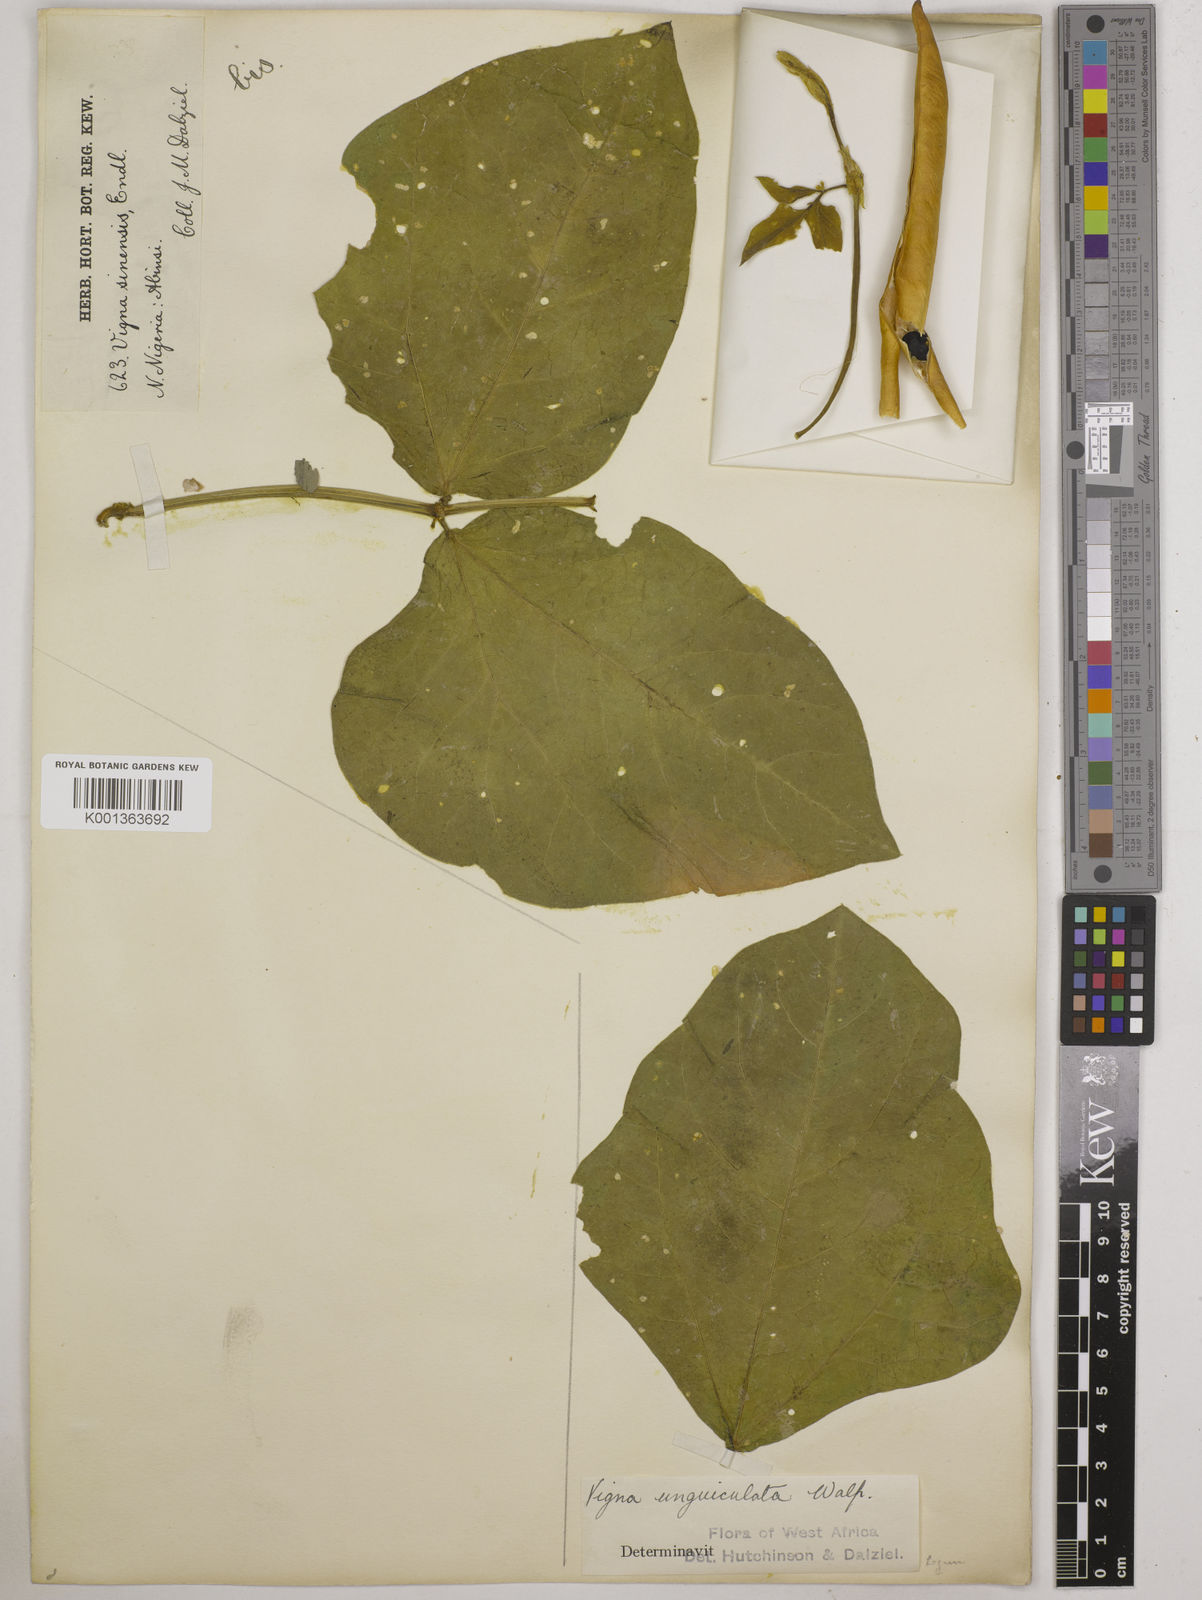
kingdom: Plantae
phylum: Tracheophyta
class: Magnoliopsida
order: Fabales
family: Fabaceae
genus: Vigna
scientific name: Vigna unguiculata
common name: Cowpea
